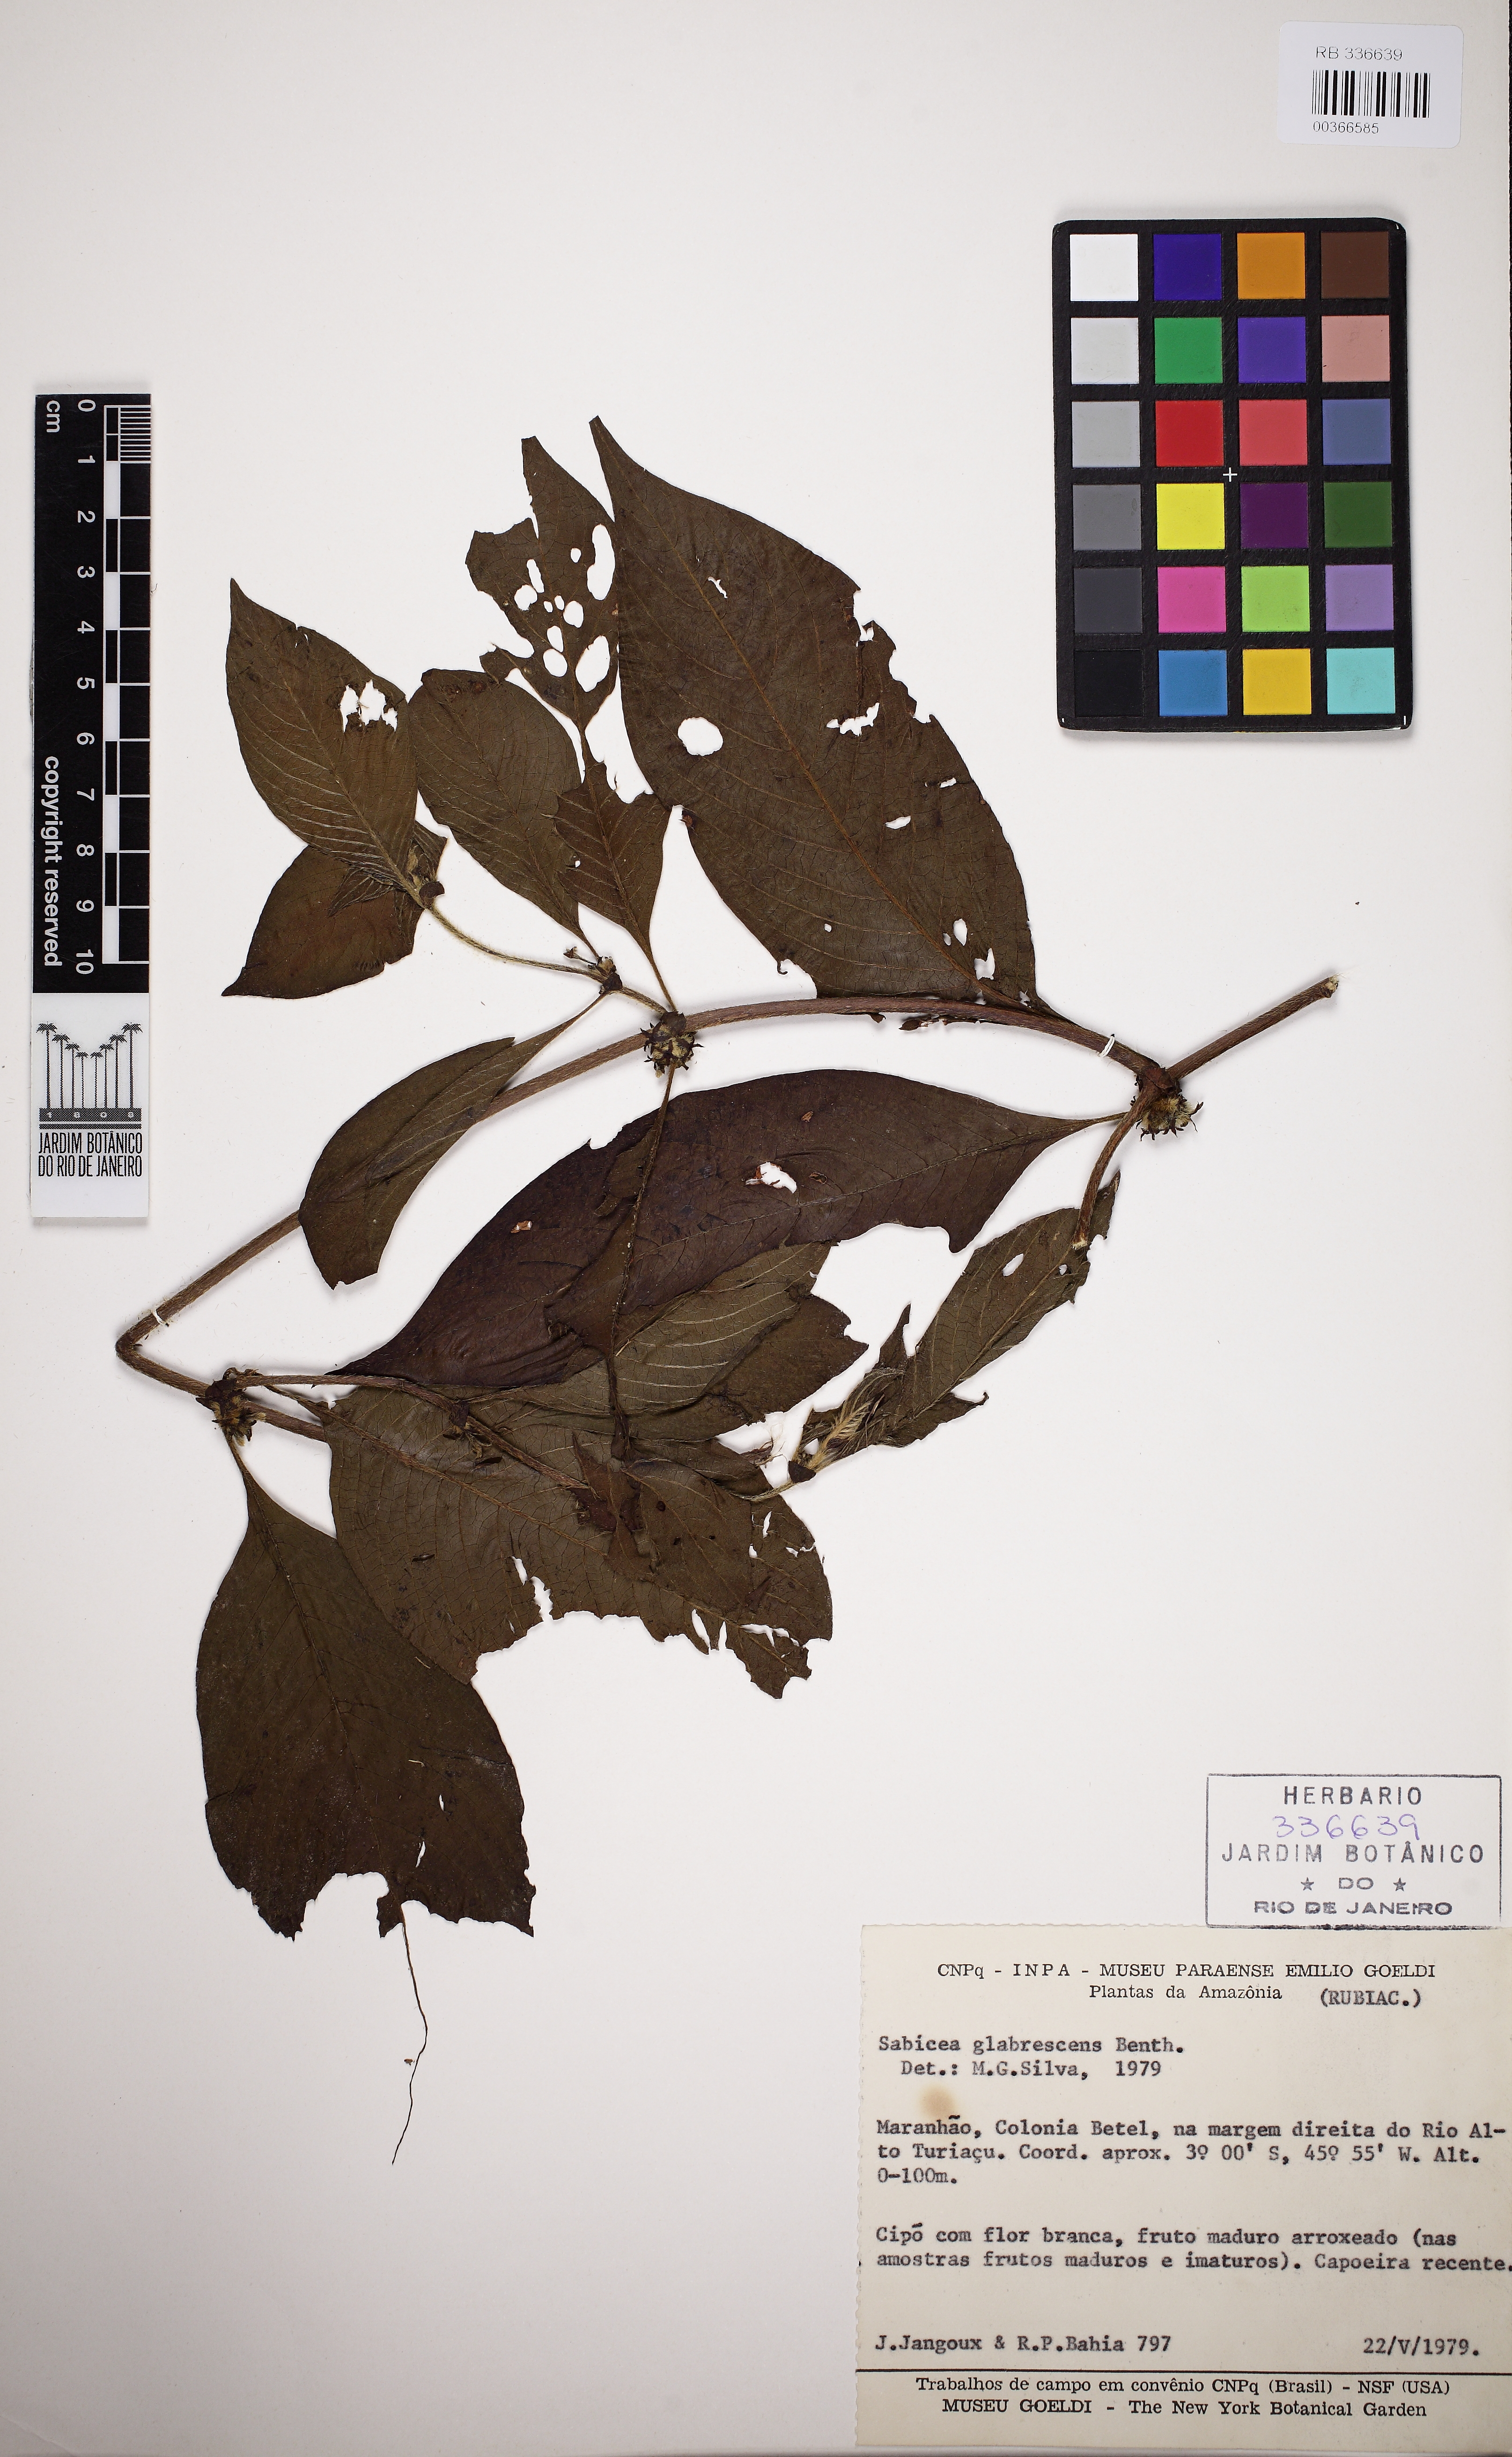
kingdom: Plantae
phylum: Tracheophyta
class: Magnoliopsida
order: Gentianales
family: Rubiaceae
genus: Sabicea
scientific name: Sabicea glabrescens
